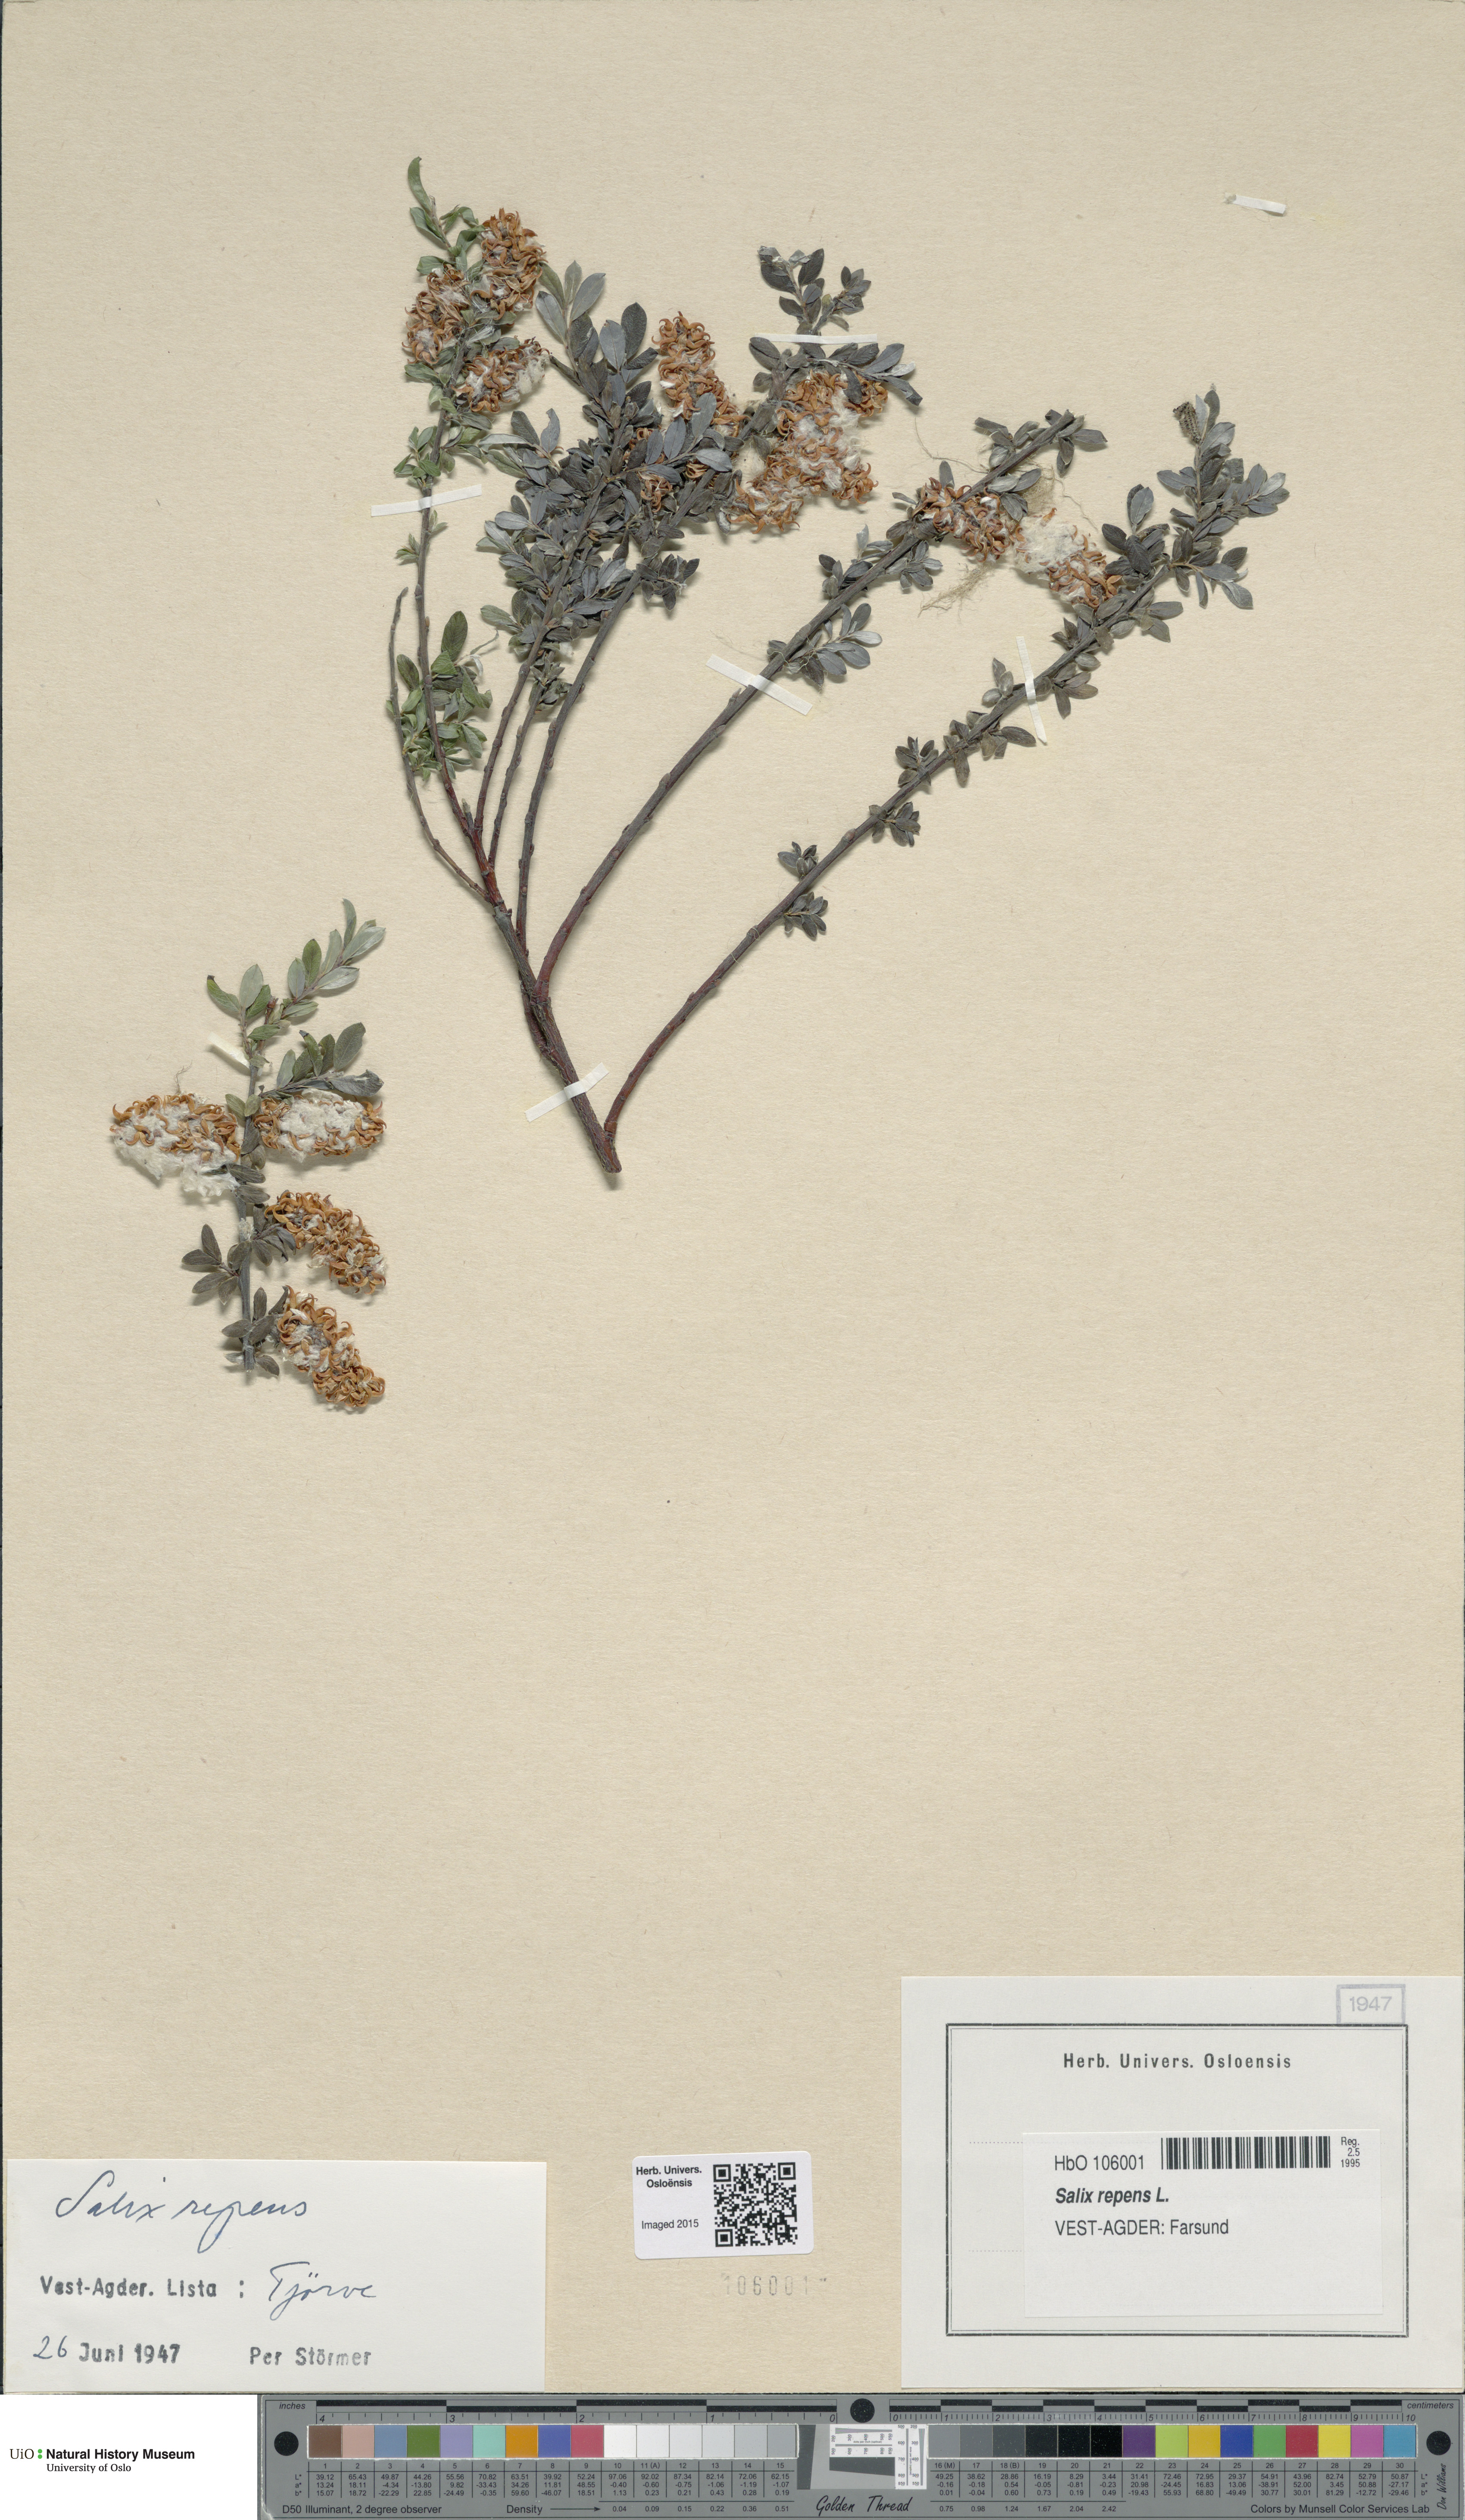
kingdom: Plantae
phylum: Tracheophyta
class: Magnoliopsida
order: Malpighiales
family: Salicaceae
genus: Salix
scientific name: Salix repens
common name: Creeping willow
